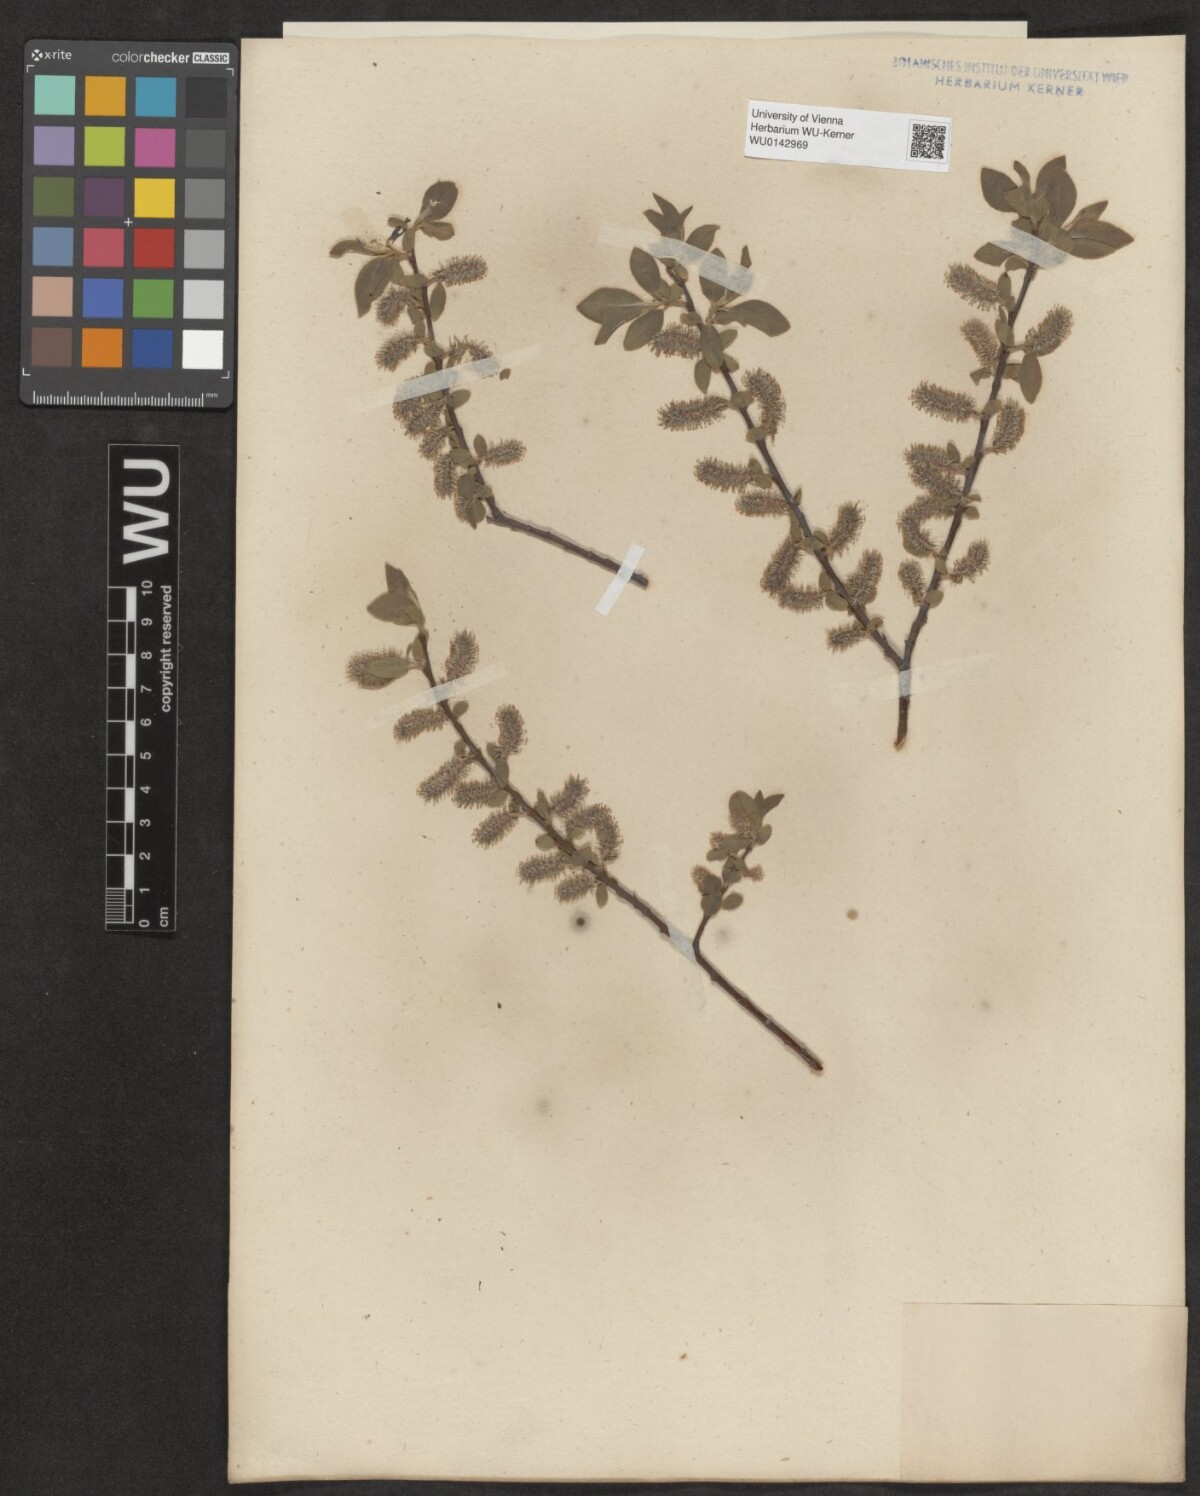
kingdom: Plantae
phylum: Tracheophyta
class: Magnoliopsida
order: Malpighiales
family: Salicaceae
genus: Salix
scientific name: Salix myrsinifolia
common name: Dark-leaved willow
